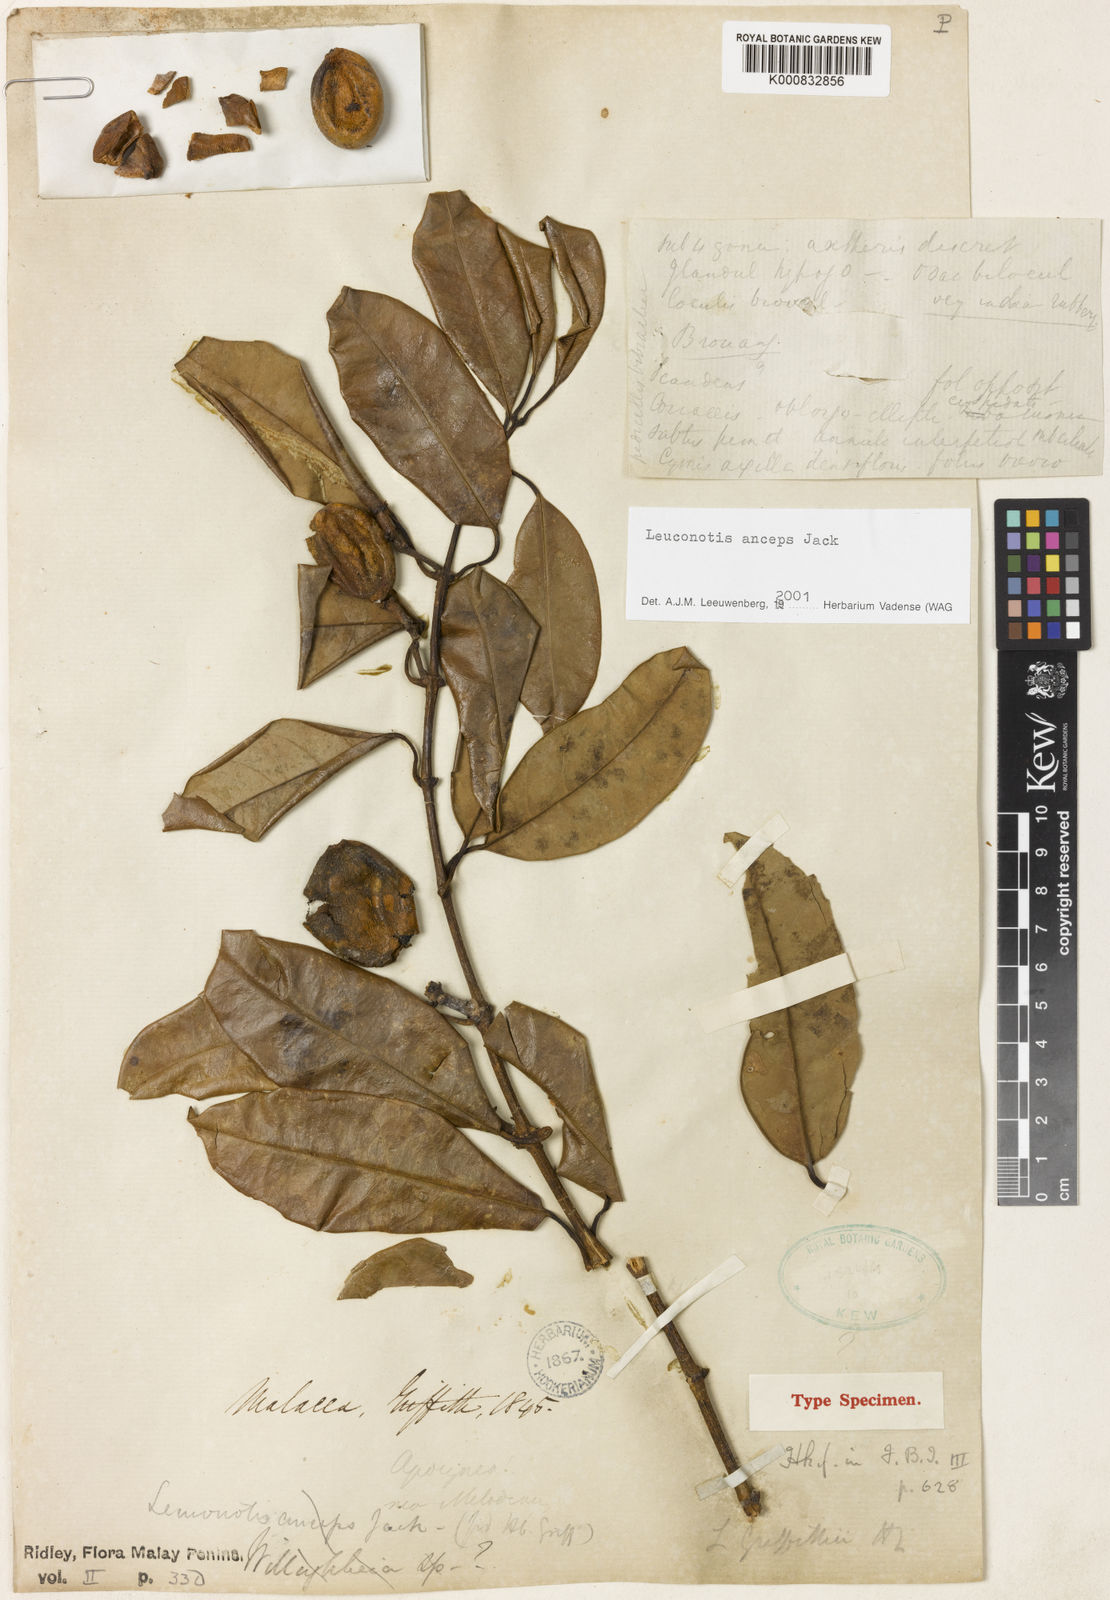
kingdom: Plantae
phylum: Tracheophyta
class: Magnoliopsida
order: Gentianales
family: Apocynaceae
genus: Leuconotis
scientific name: Leuconotis griffithii
